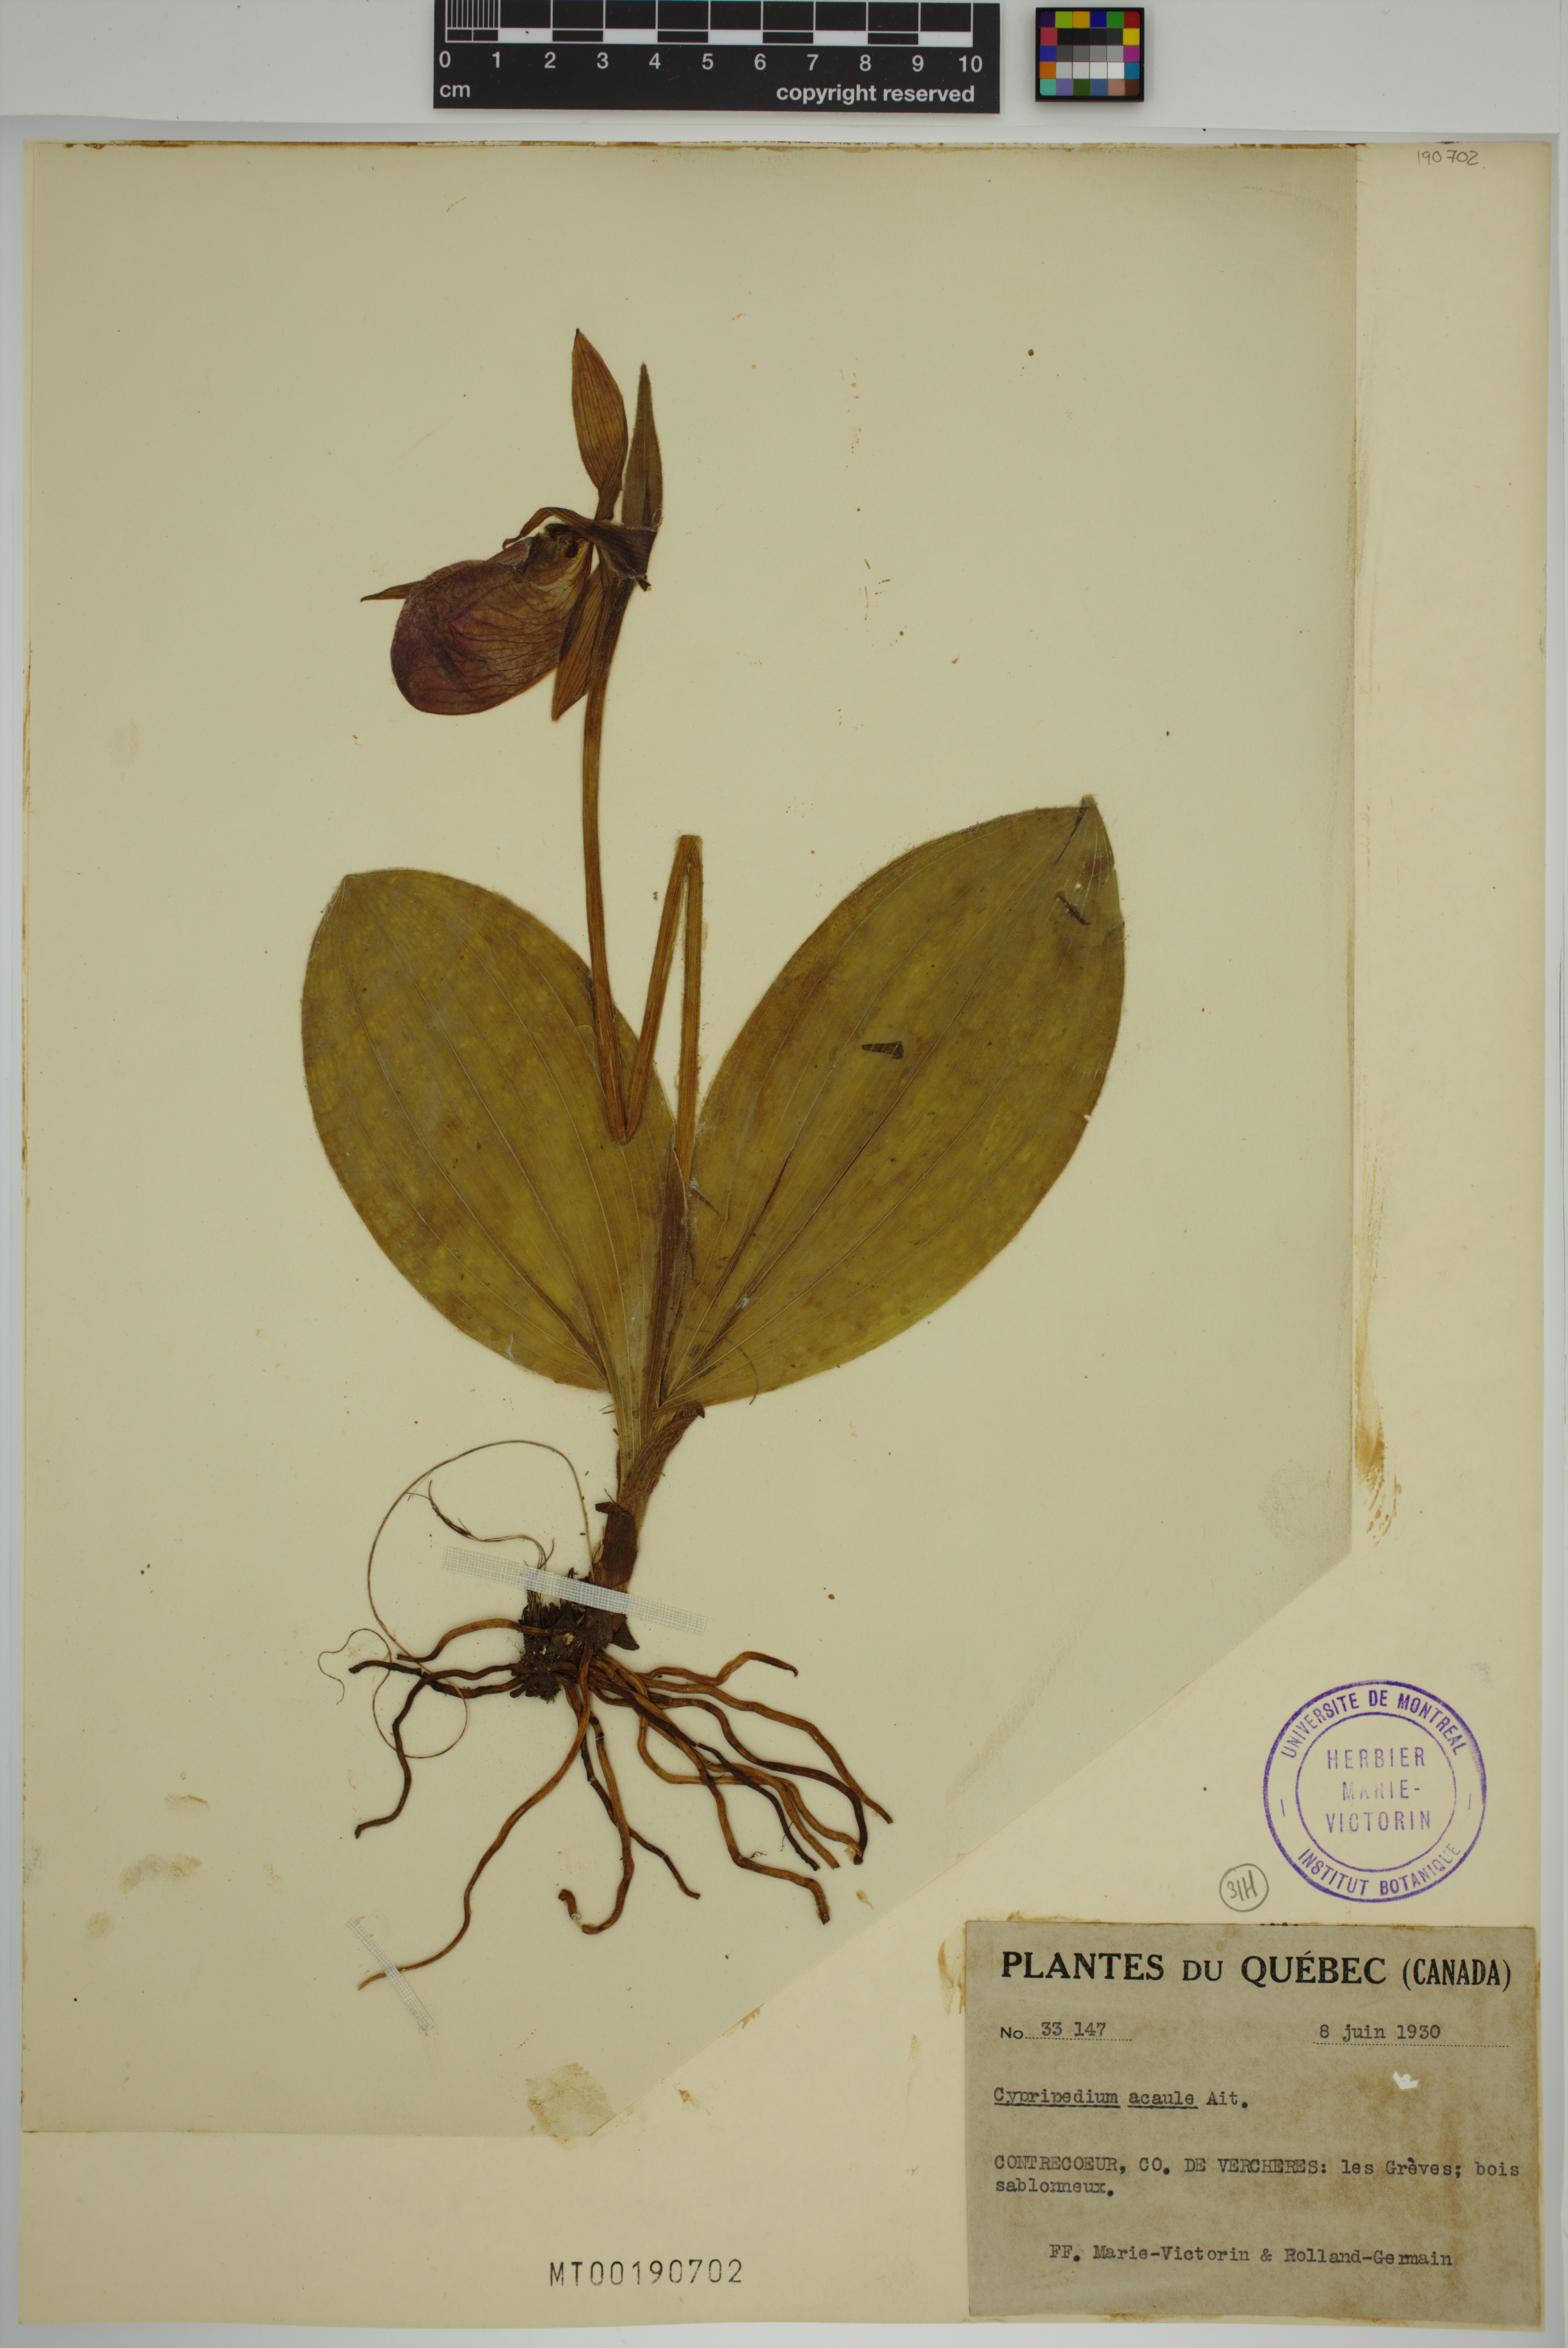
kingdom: Plantae
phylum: Tracheophyta
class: Liliopsida
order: Asparagales
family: Orchidaceae
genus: Cypripedium
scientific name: Cypripedium acaule
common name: Pink lady's-slipper
